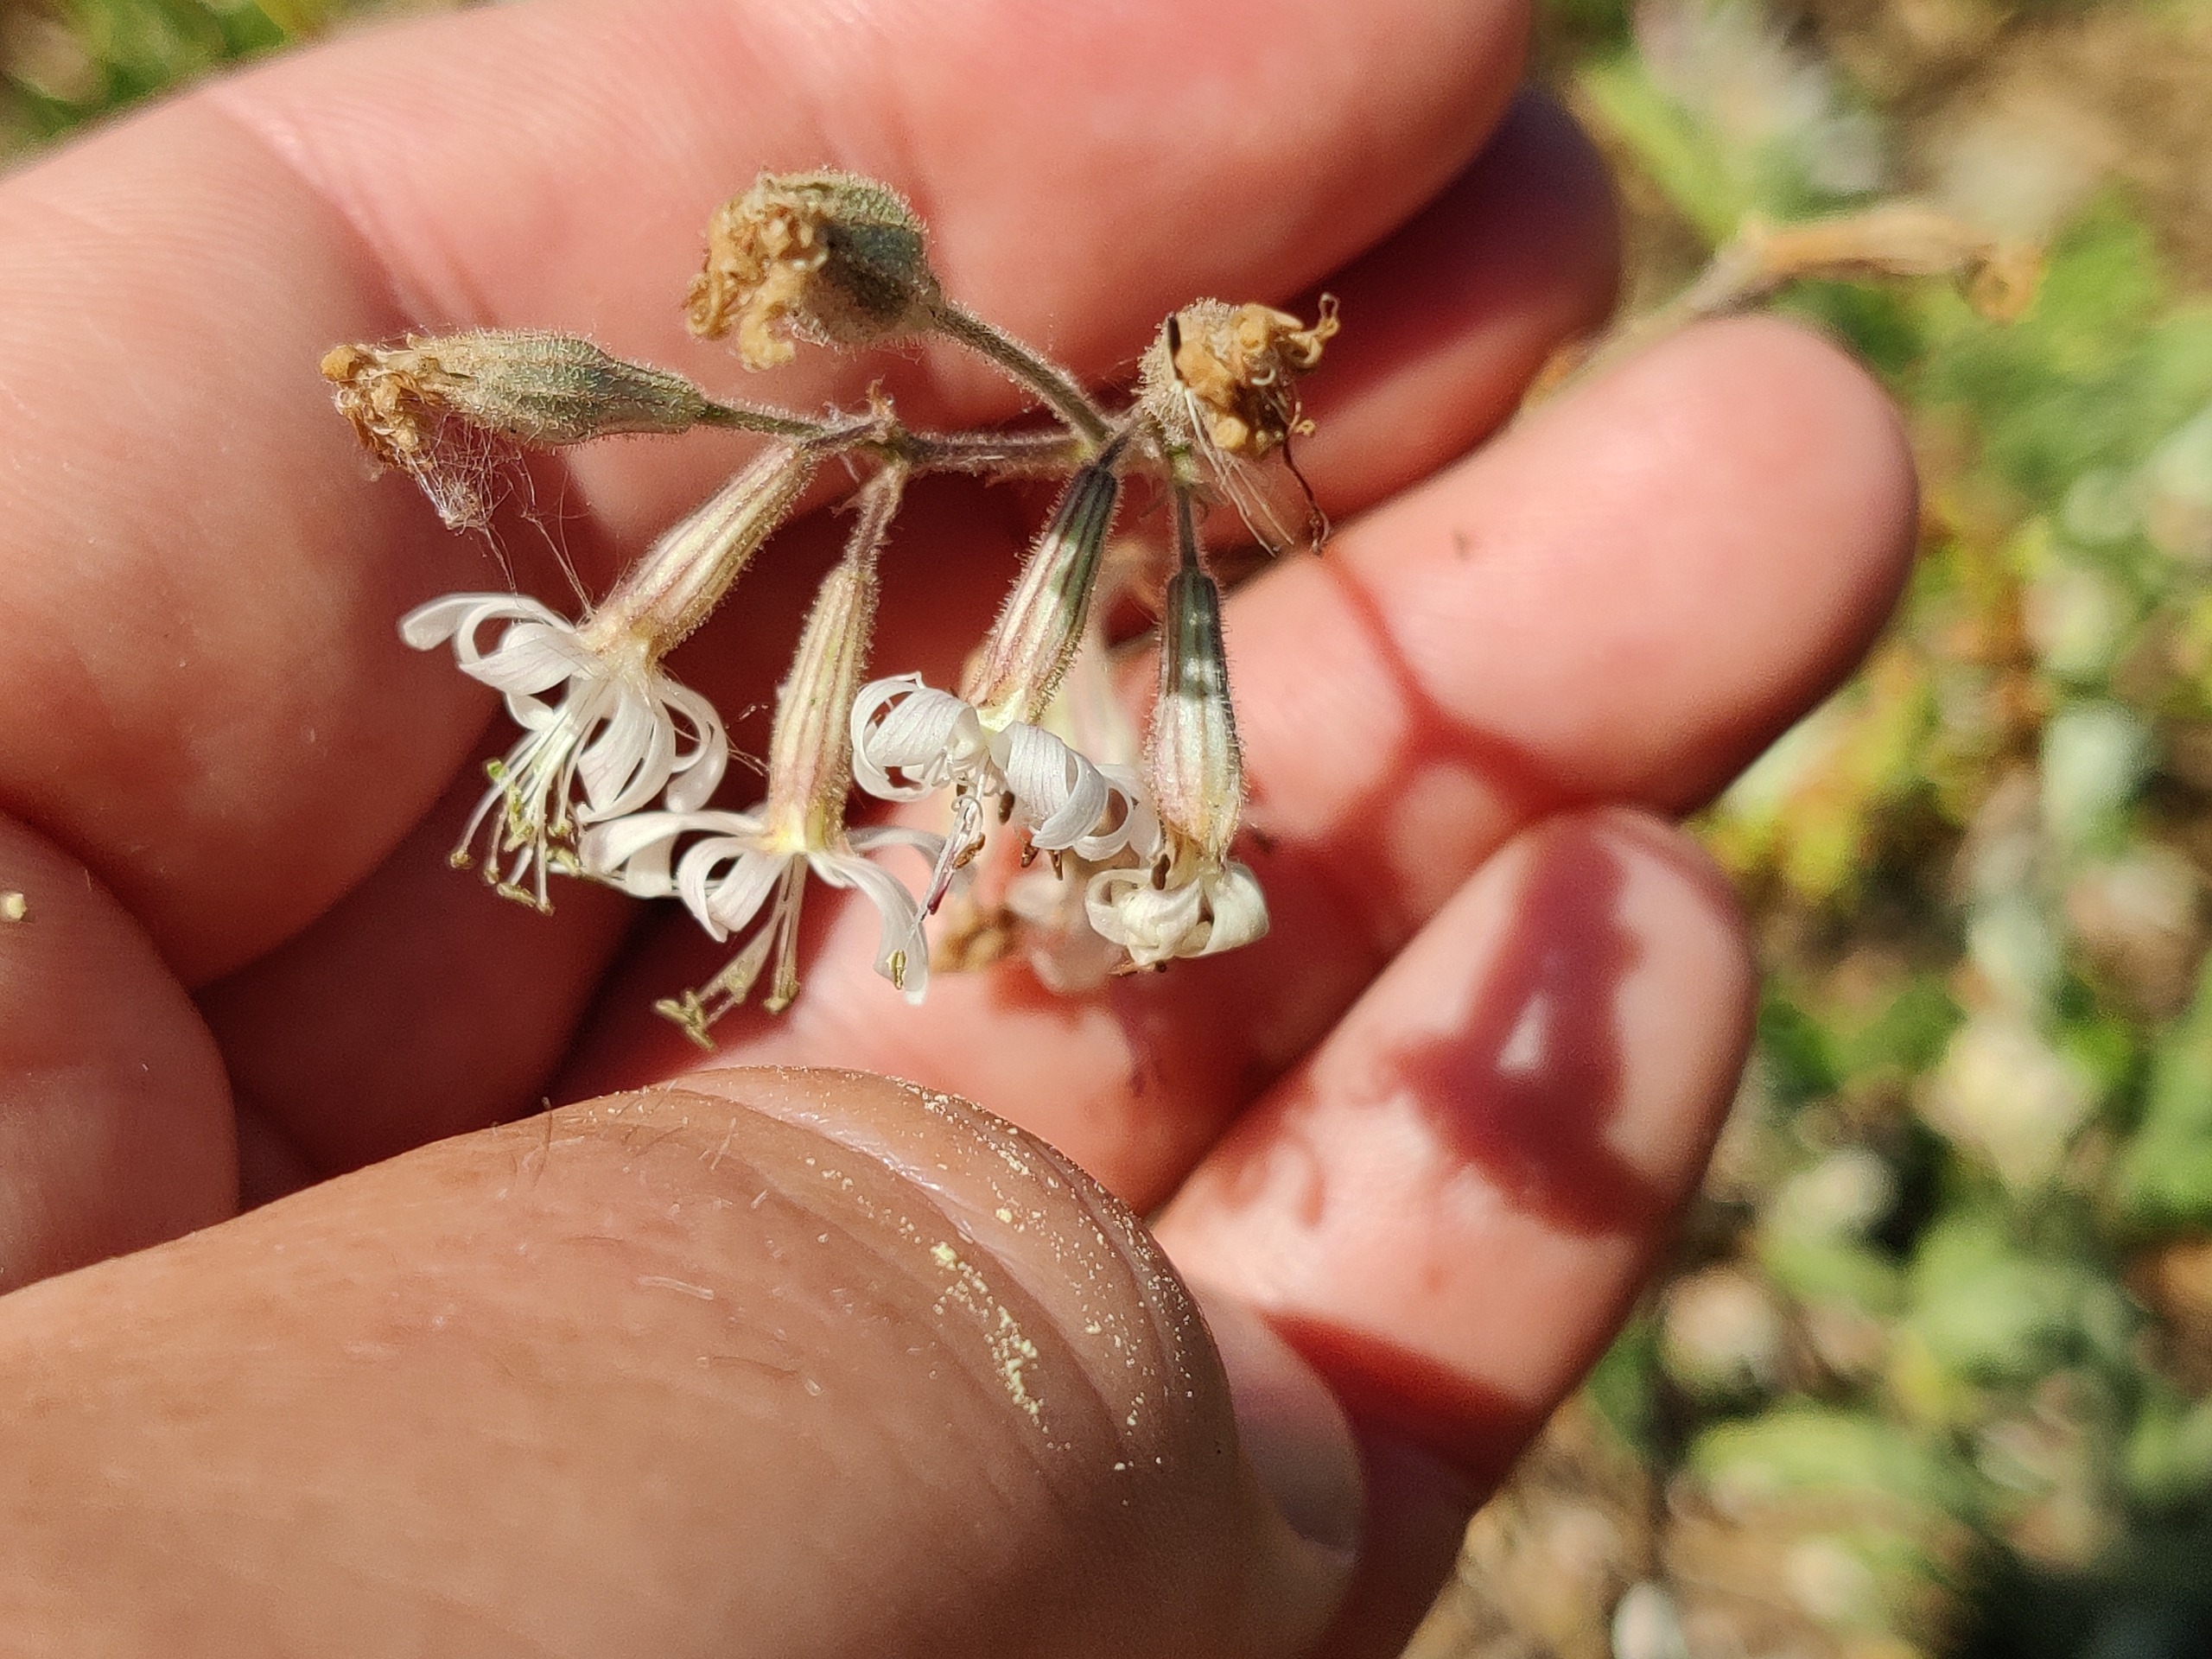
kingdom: Plantae
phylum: Tracheophyta
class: Magnoliopsida
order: Caryophyllales
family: Caryophyllaceae
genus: Silene
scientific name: Silene nutans
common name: Nikkende limurt
